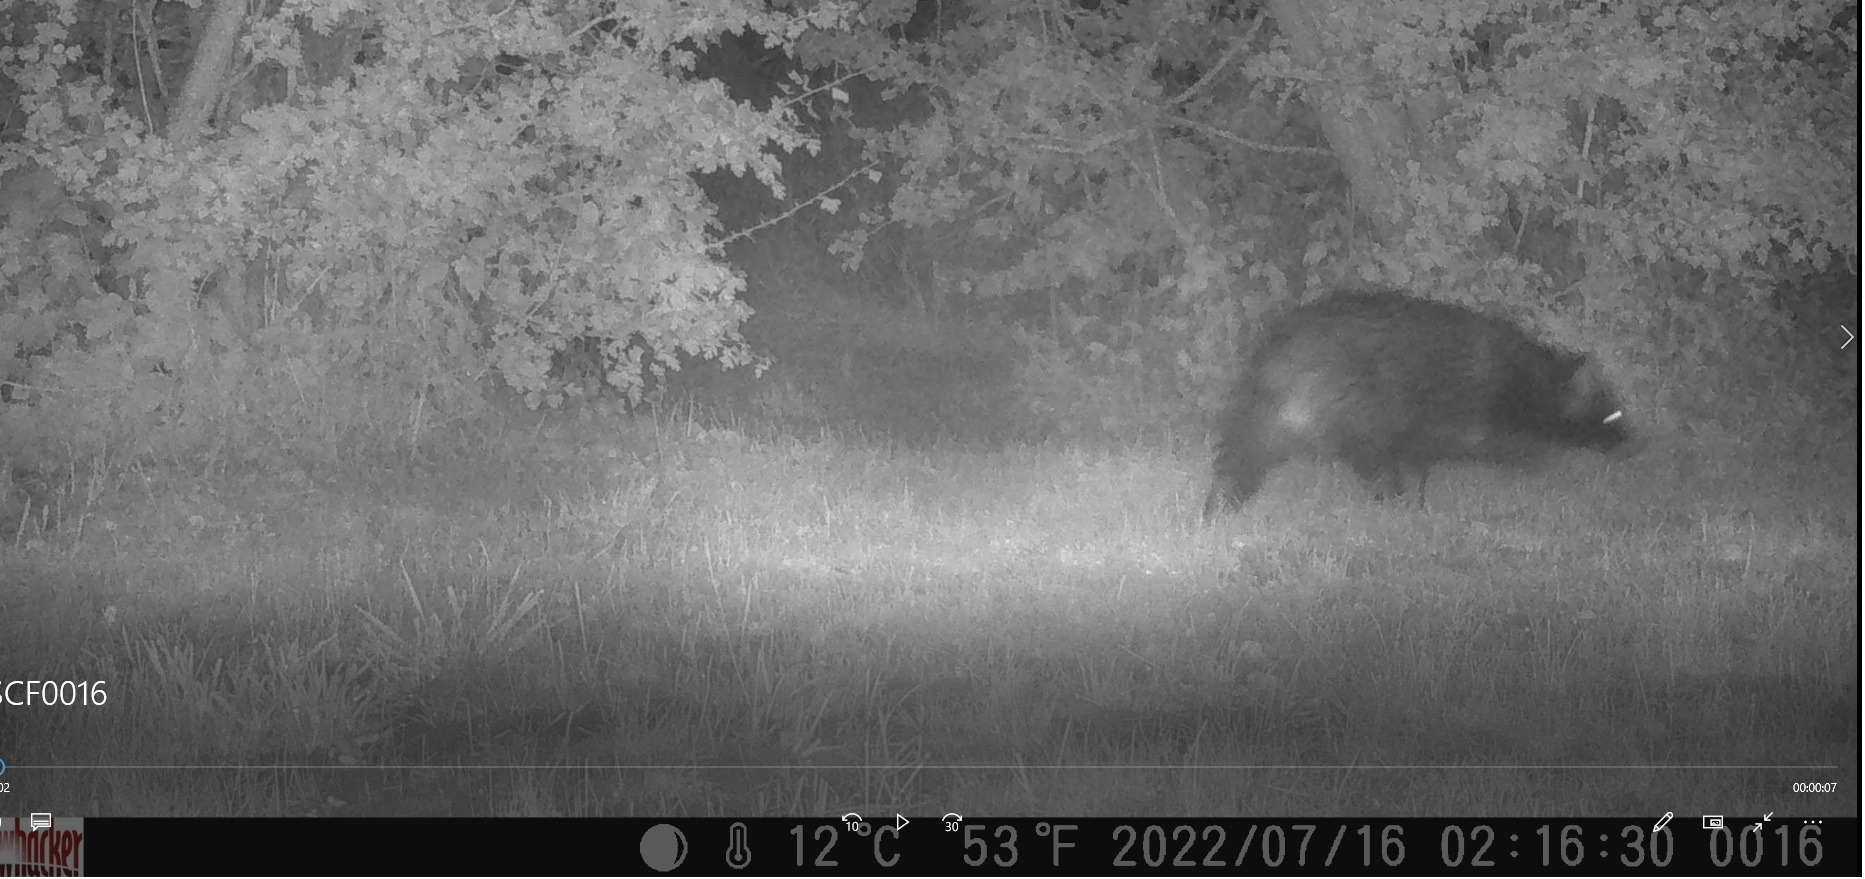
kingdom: Animalia
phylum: Chordata
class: Mammalia
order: Carnivora
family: Canidae
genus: Nyctereutes
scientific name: Nyctereutes procyonoides
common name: Mårhund
